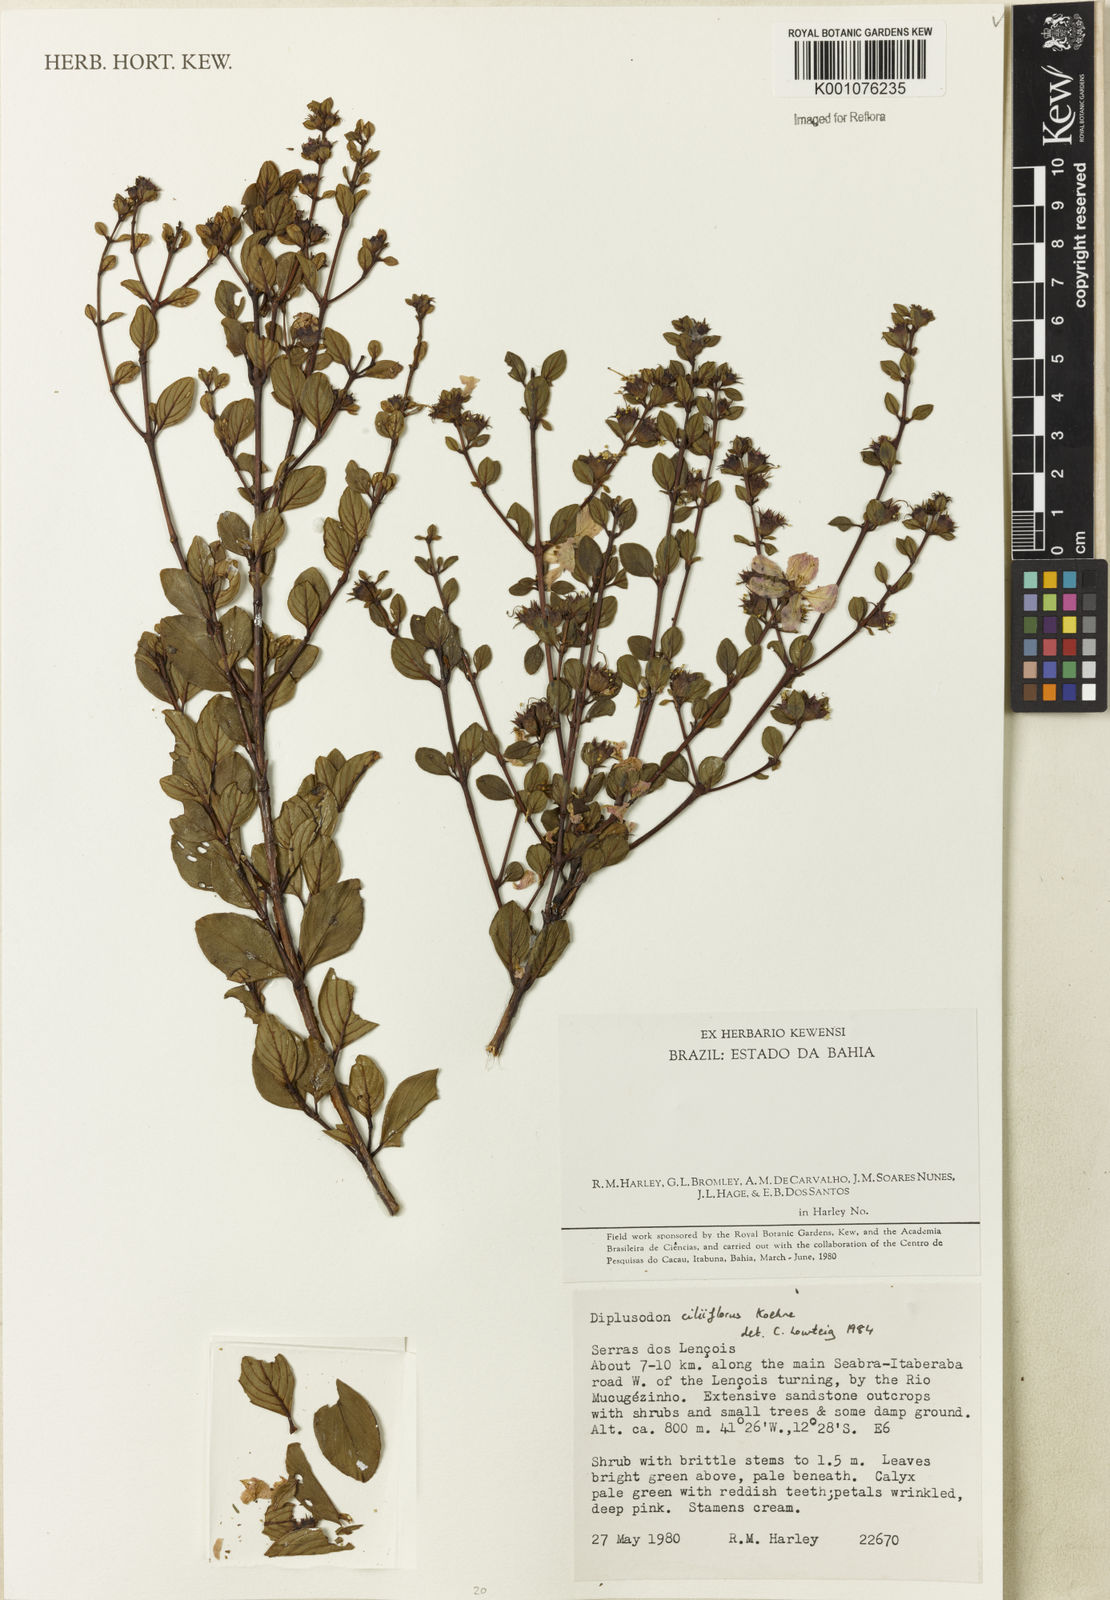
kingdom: Plantae
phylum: Tracheophyta
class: Magnoliopsida
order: Myrtales
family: Lythraceae
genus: Diplusodon
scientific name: Diplusodon ciliiflorus
